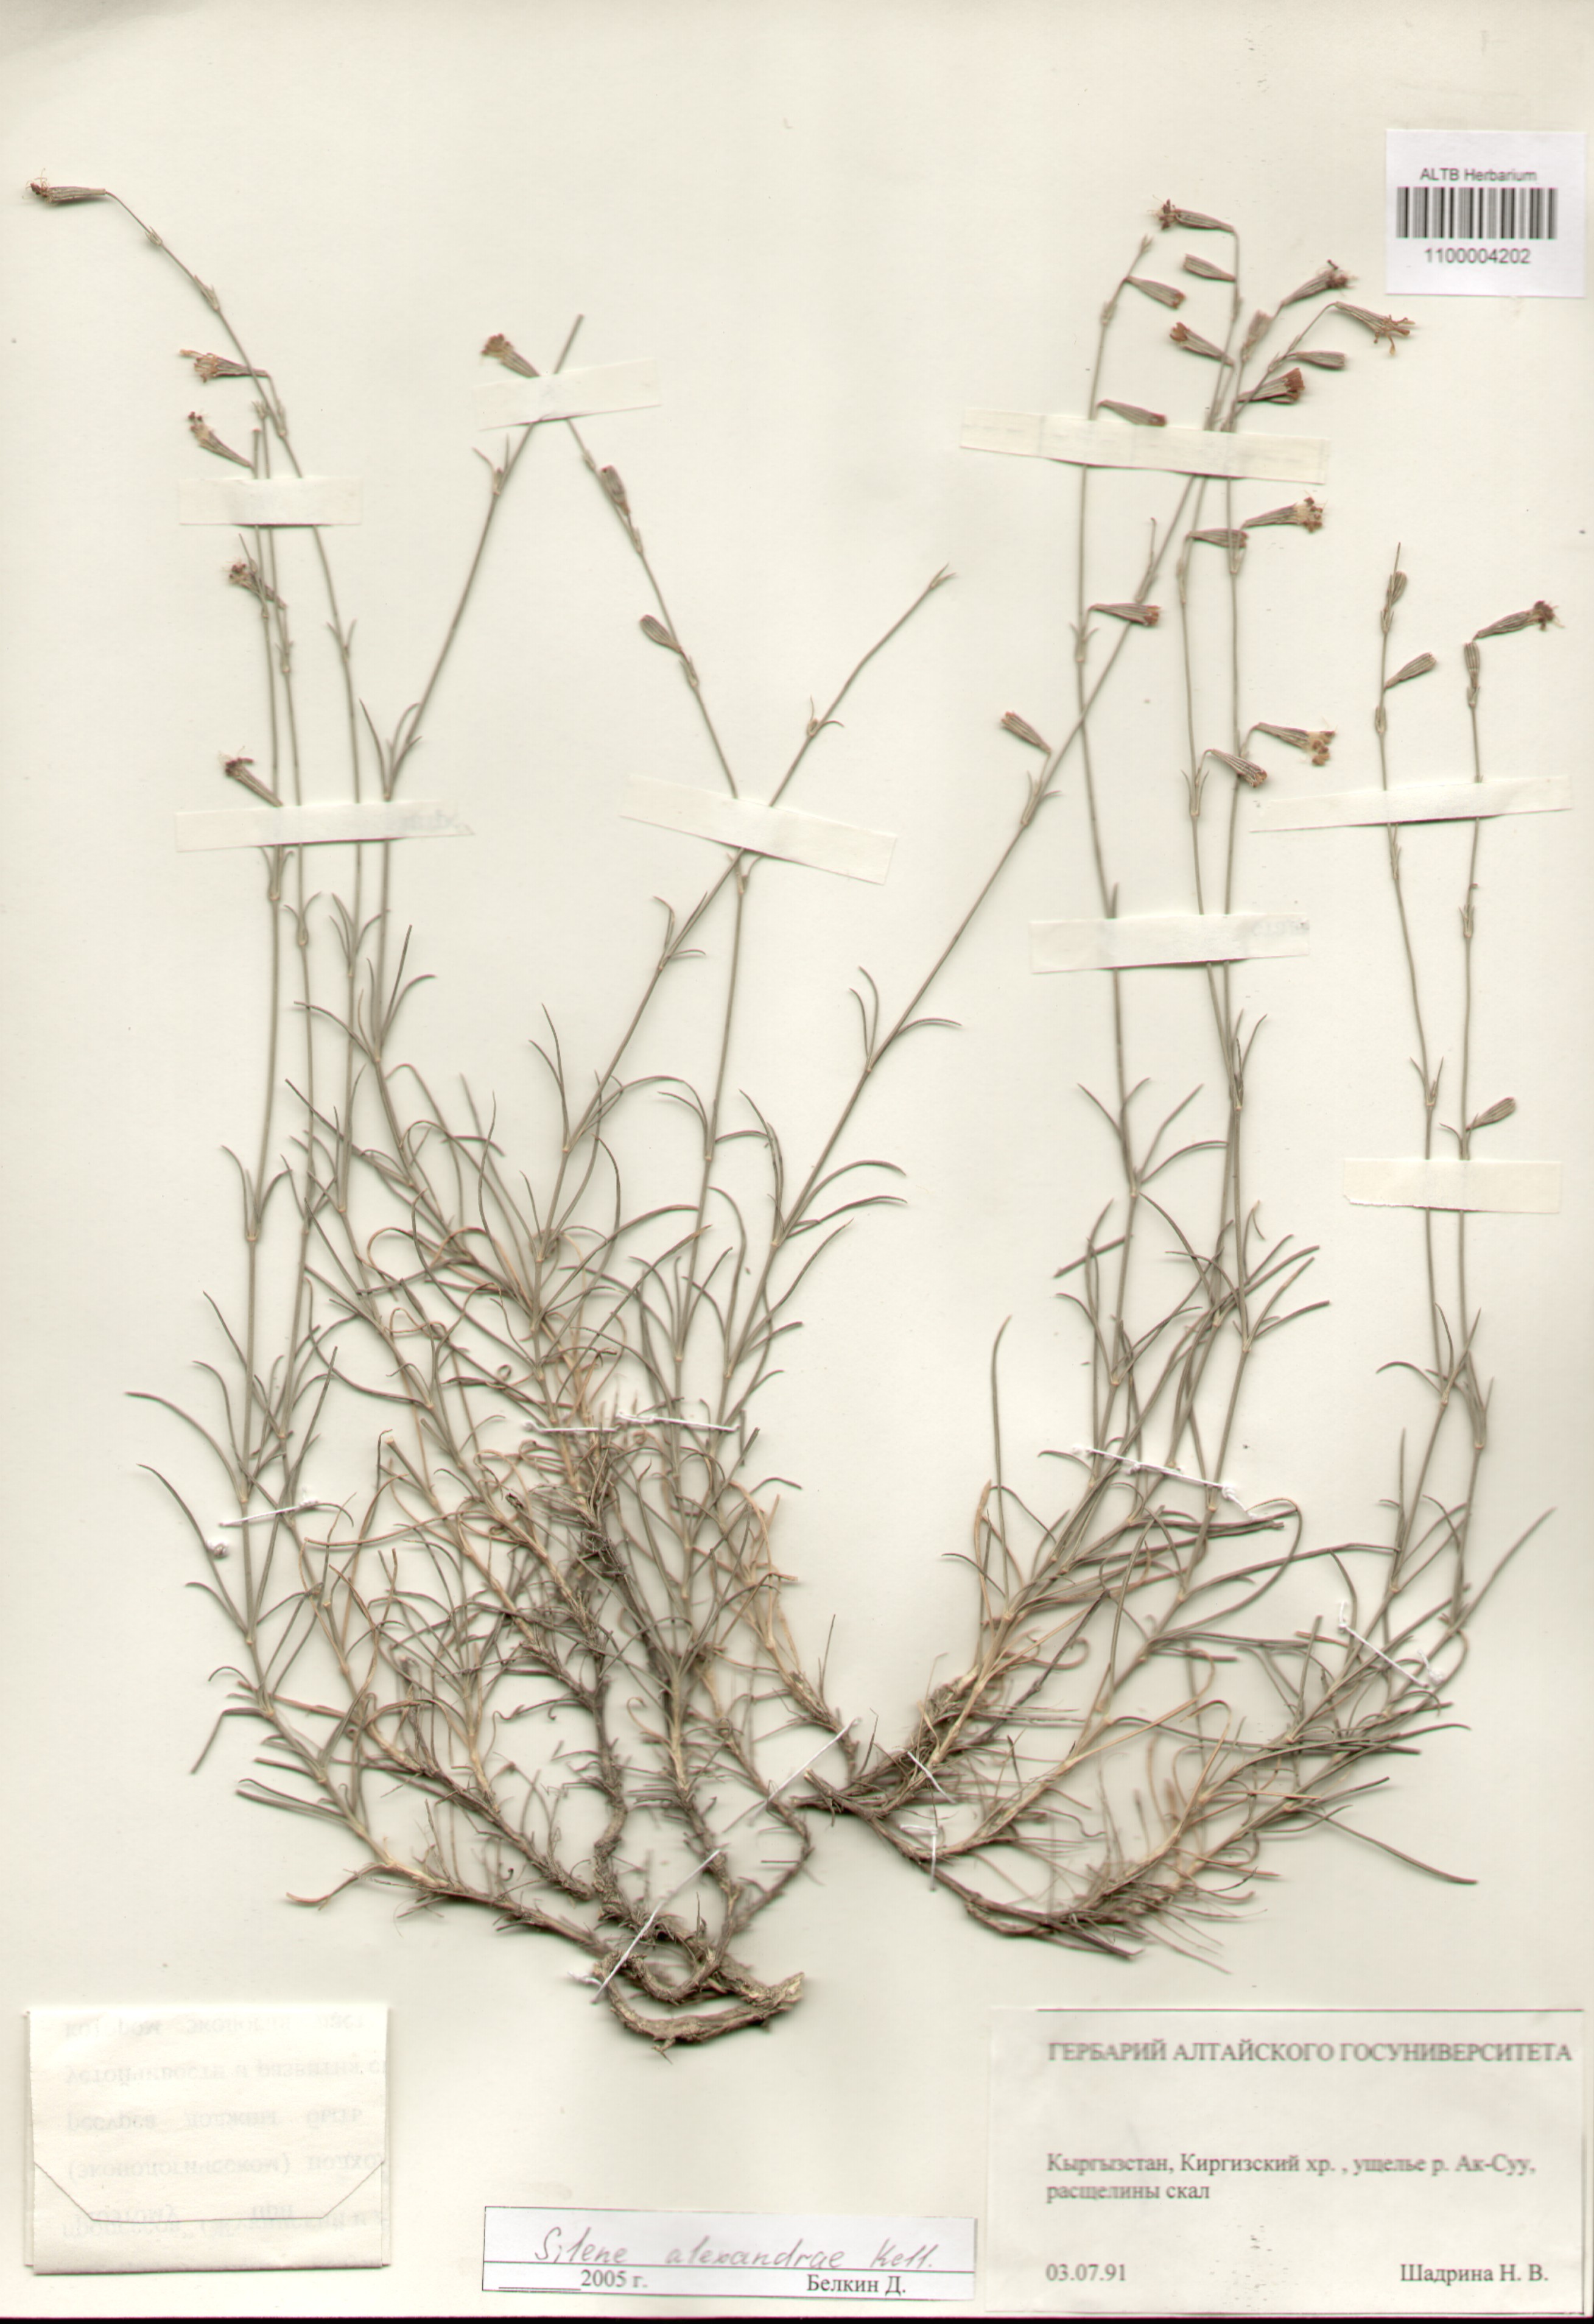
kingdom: Plantae
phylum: Tracheophyta
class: Magnoliopsida
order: Caryophyllales
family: Caryophyllaceae
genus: Silene
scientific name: Silene alexandrae
